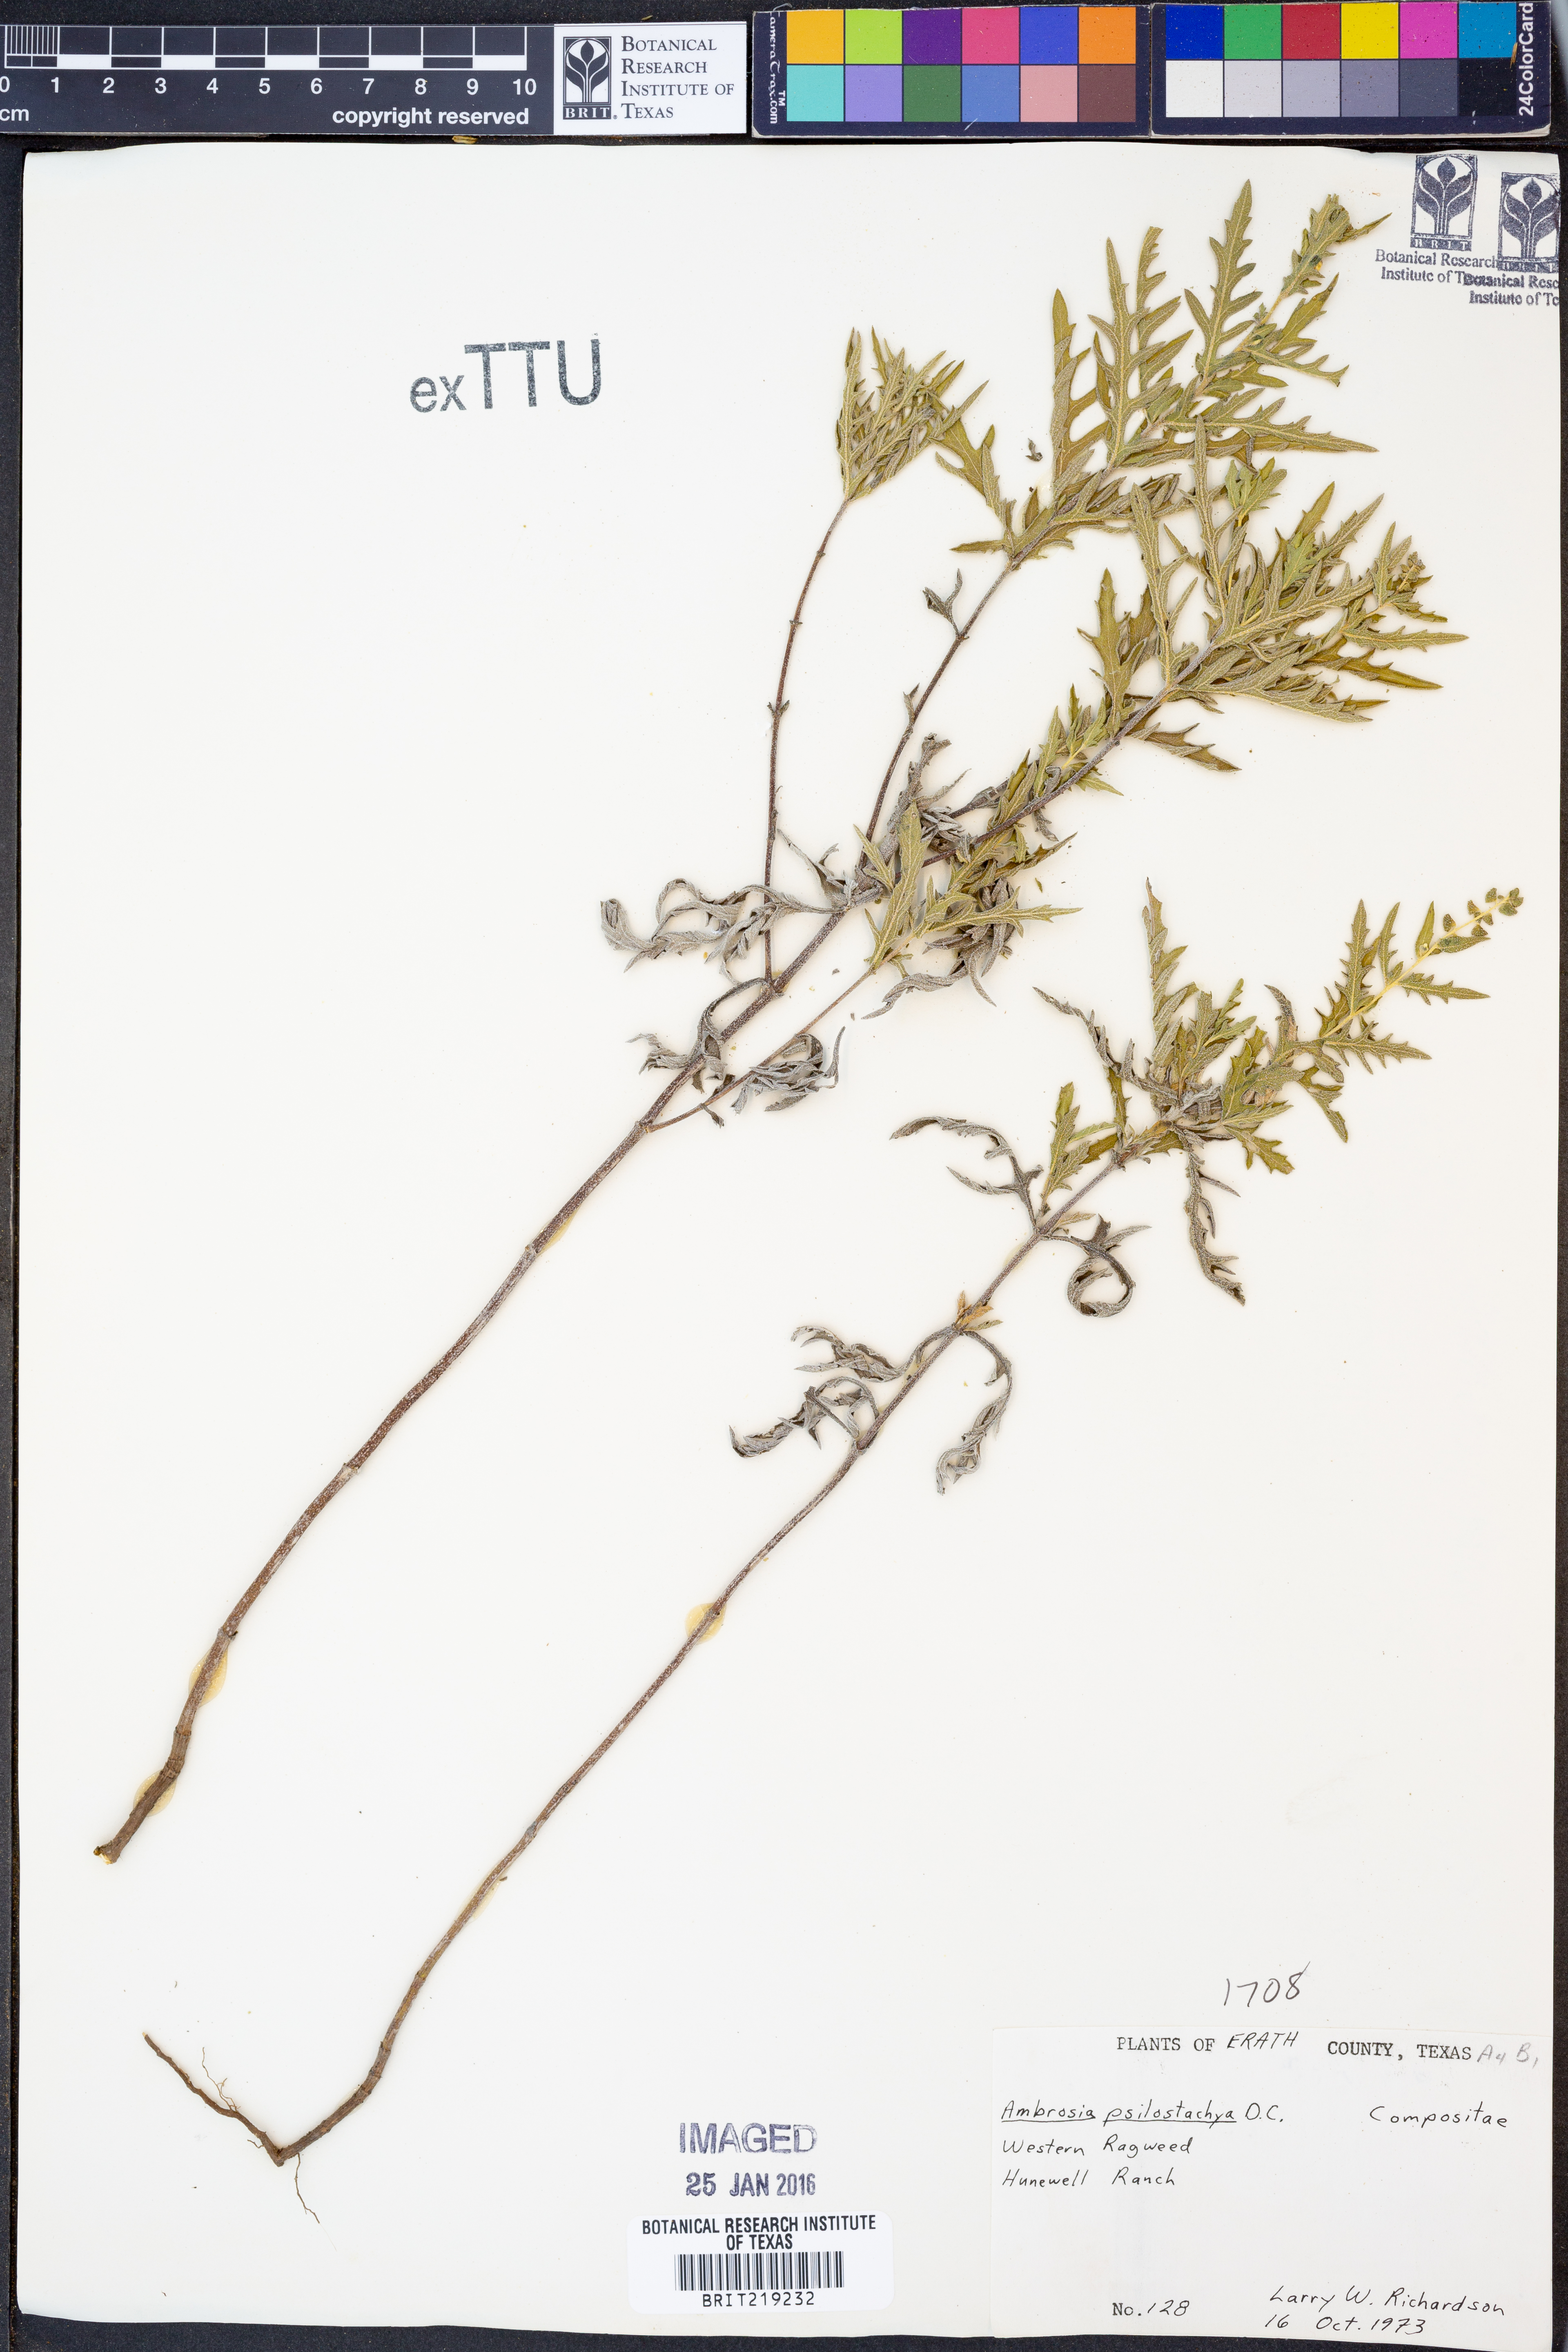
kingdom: Plantae
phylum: Tracheophyta
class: Magnoliopsida
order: Asterales
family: Asteraceae
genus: Ambrosia
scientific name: Ambrosia psilostachya
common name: Perennial ragweed
